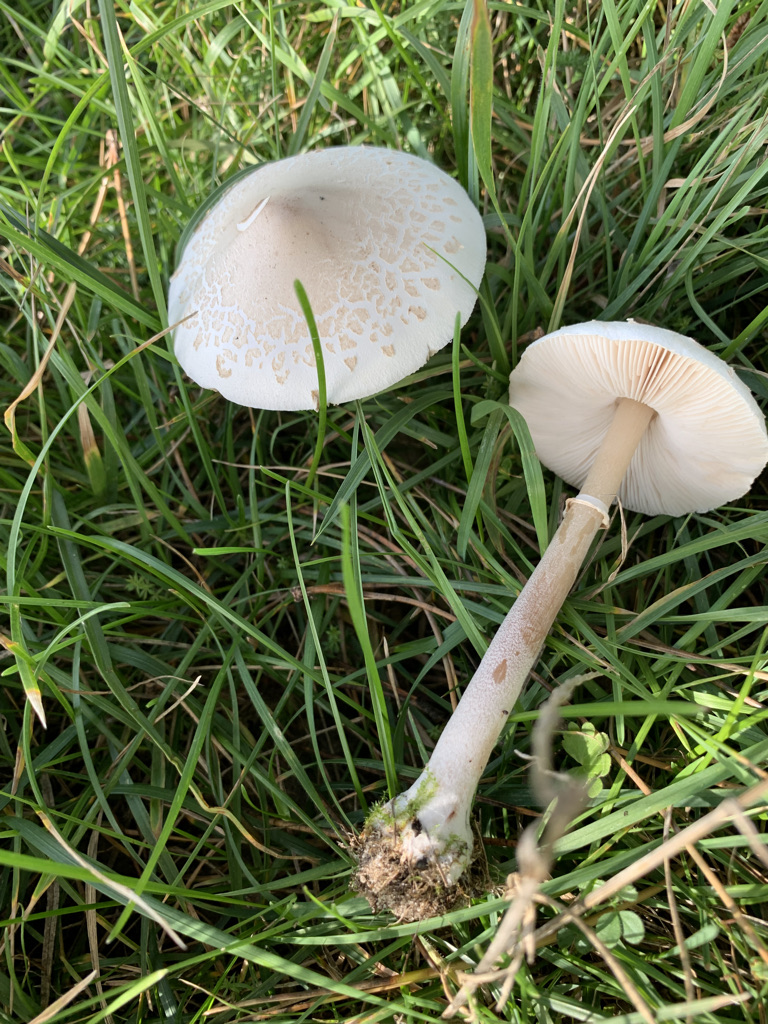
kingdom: Fungi
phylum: Basidiomycota
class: Agaricomycetes
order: Agaricales
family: Agaricaceae
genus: Macrolepiota
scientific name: Macrolepiota excoriata
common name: mark-kæmpeparasolhat
